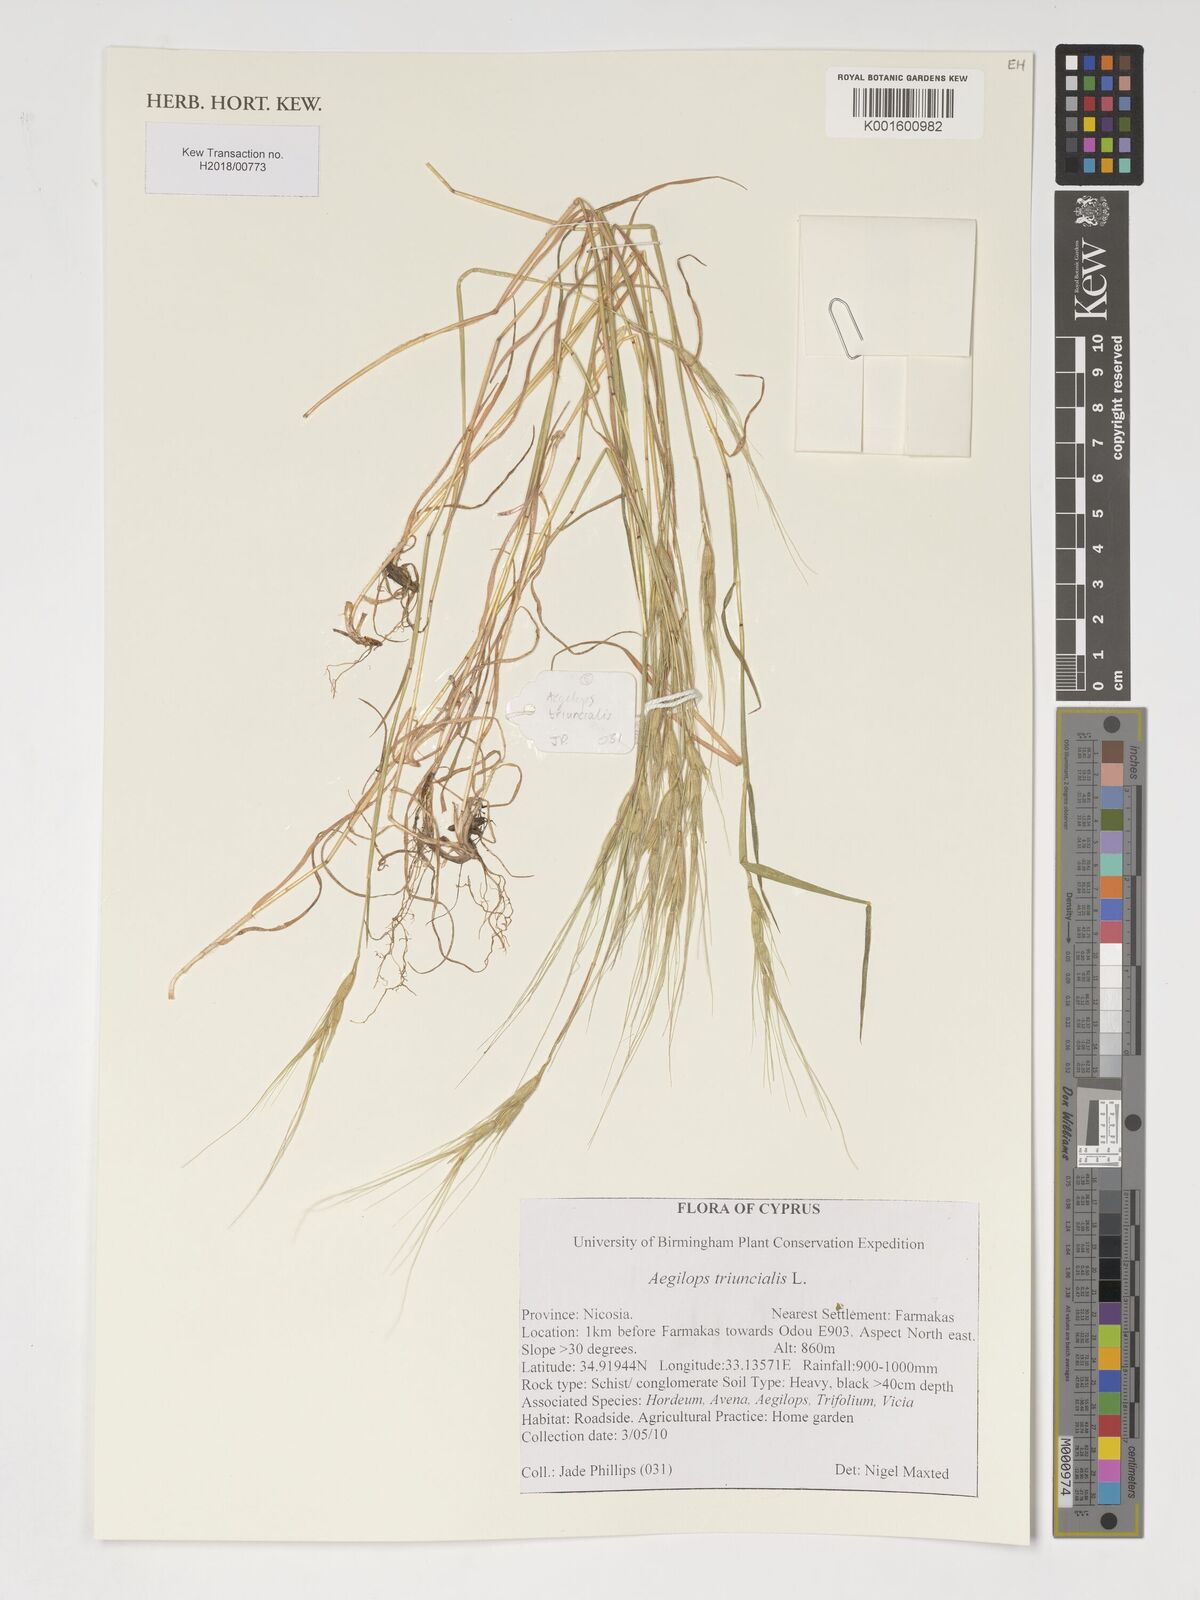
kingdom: Plantae
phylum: Tracheophyta
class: Liliopsida
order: Poales
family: Poaceae
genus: Aegilops
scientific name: Aegilops triuncialis
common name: Barb goat grass
